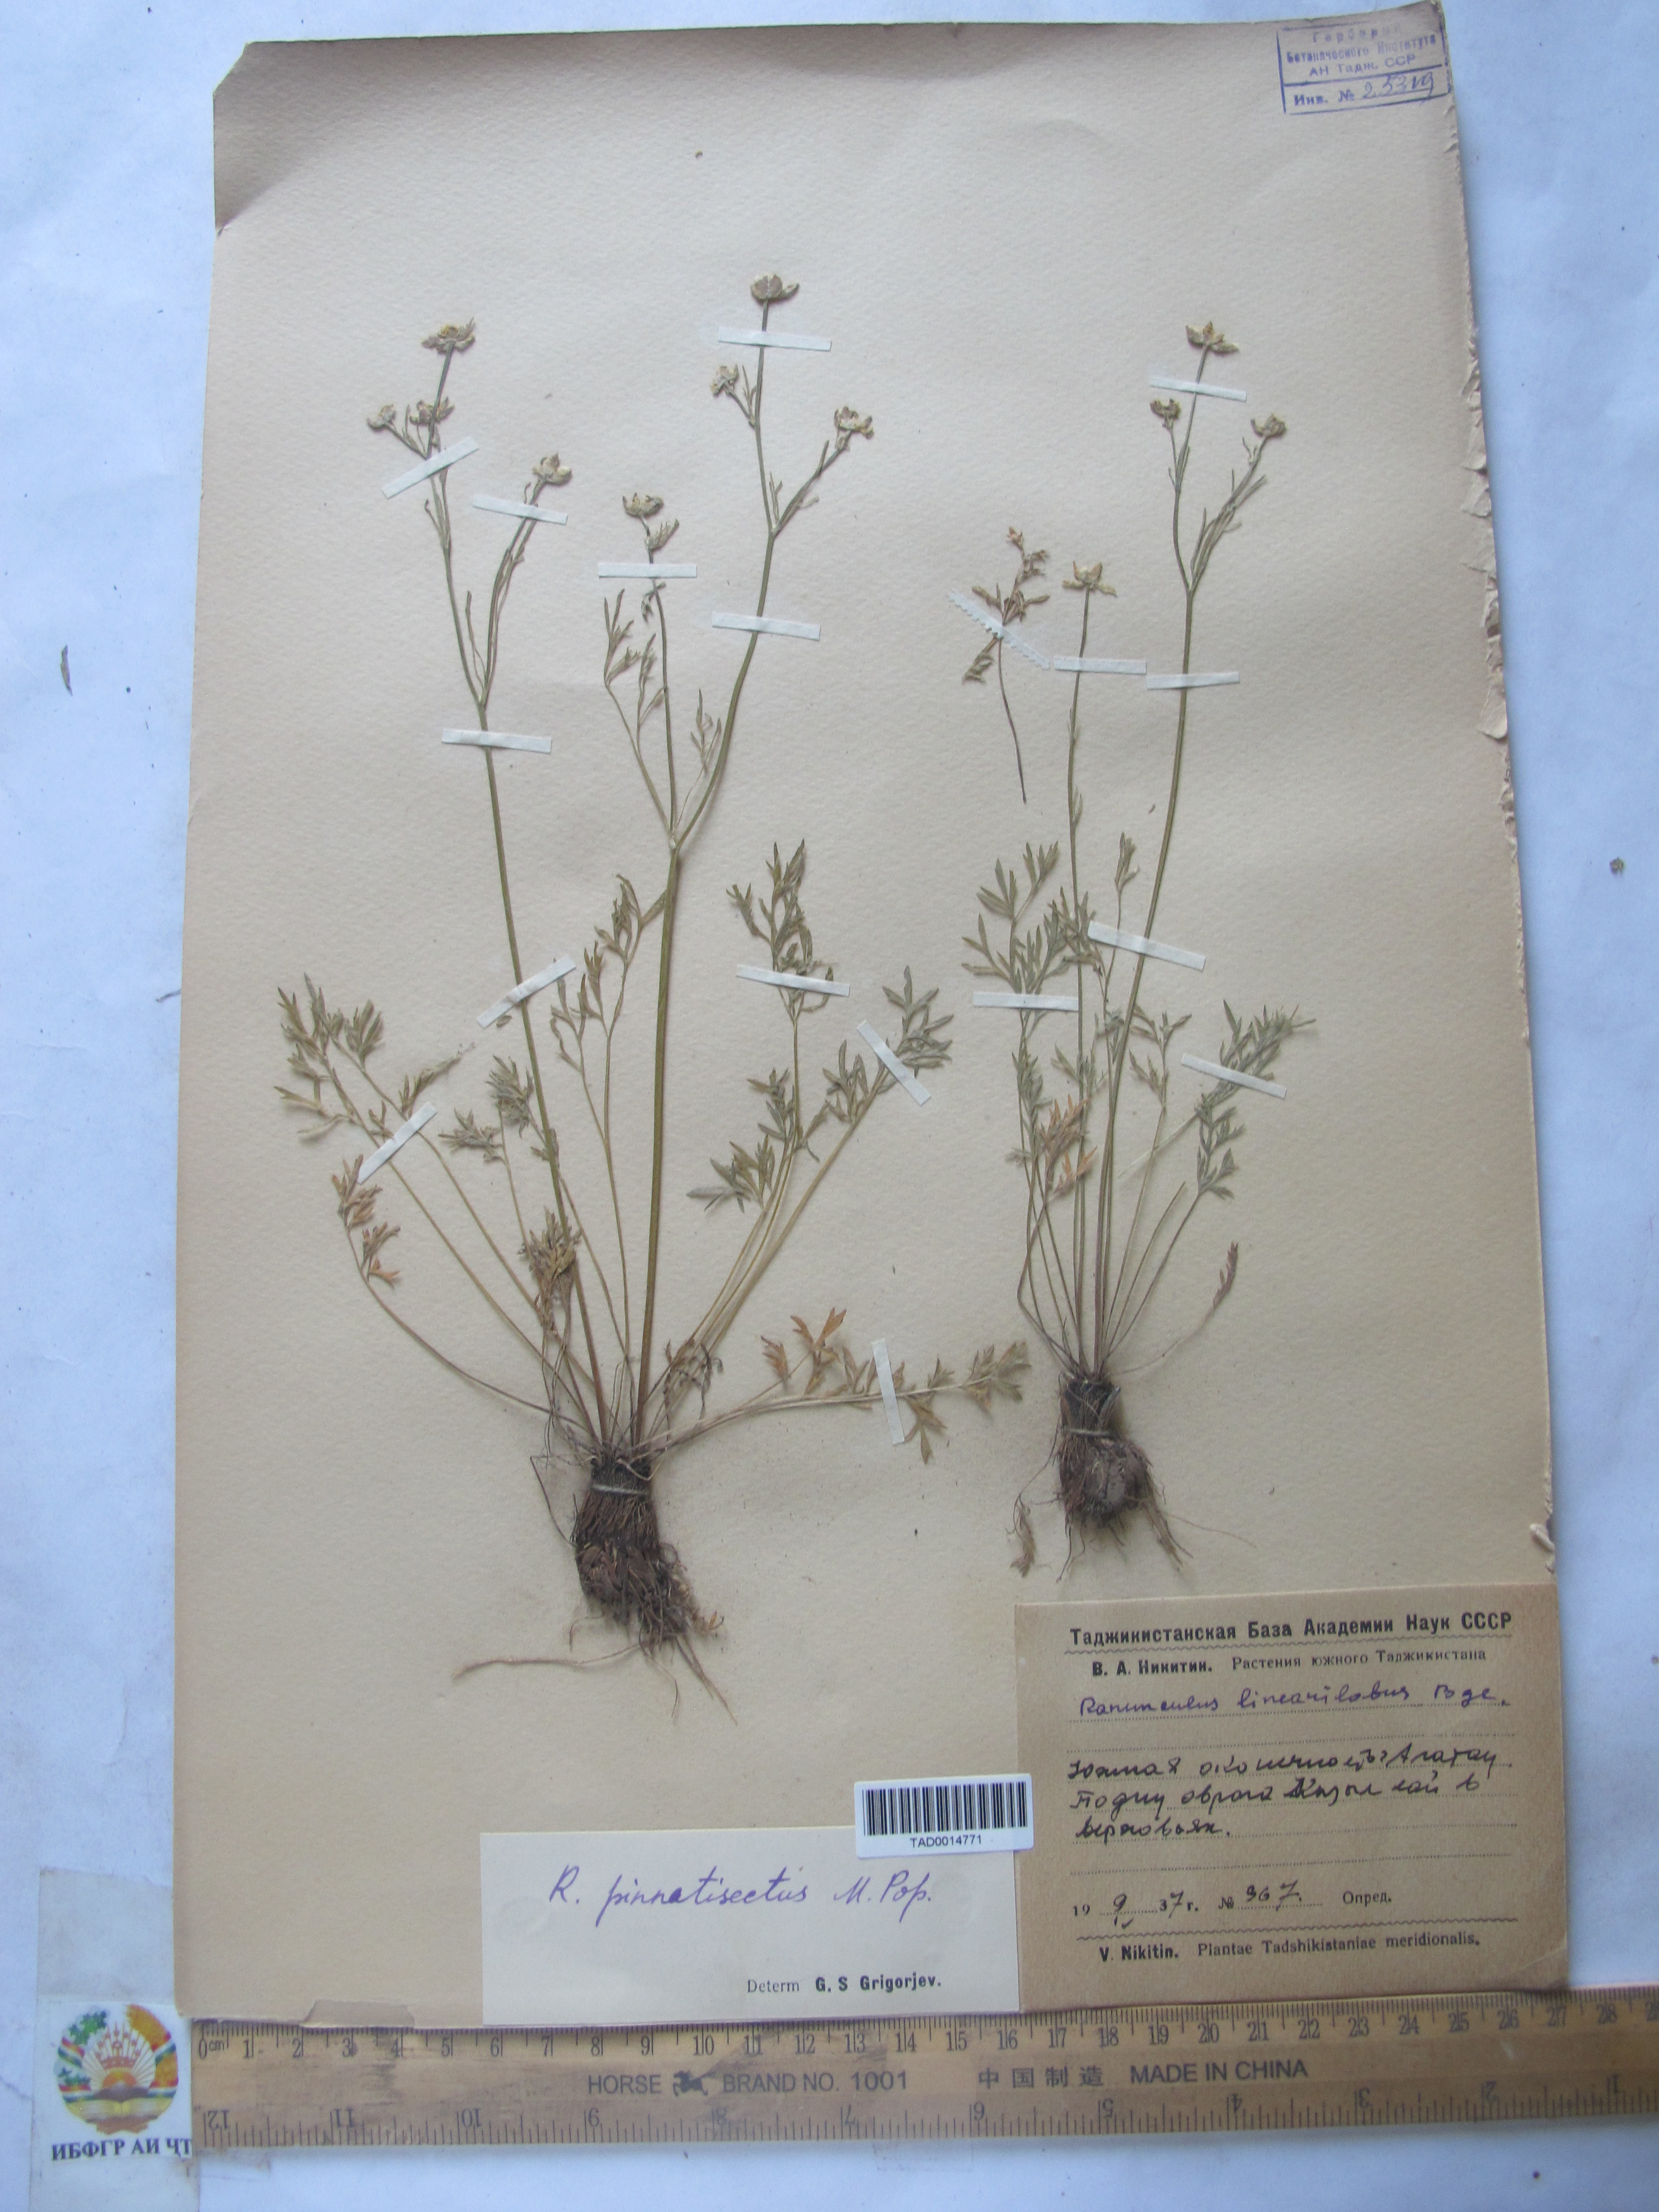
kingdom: Plantae
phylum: Tracheophyta
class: Magnoliopsida
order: Ranunculales
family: Ranunculaceae
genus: Ranunculus
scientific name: Ranunculus linearilobus
